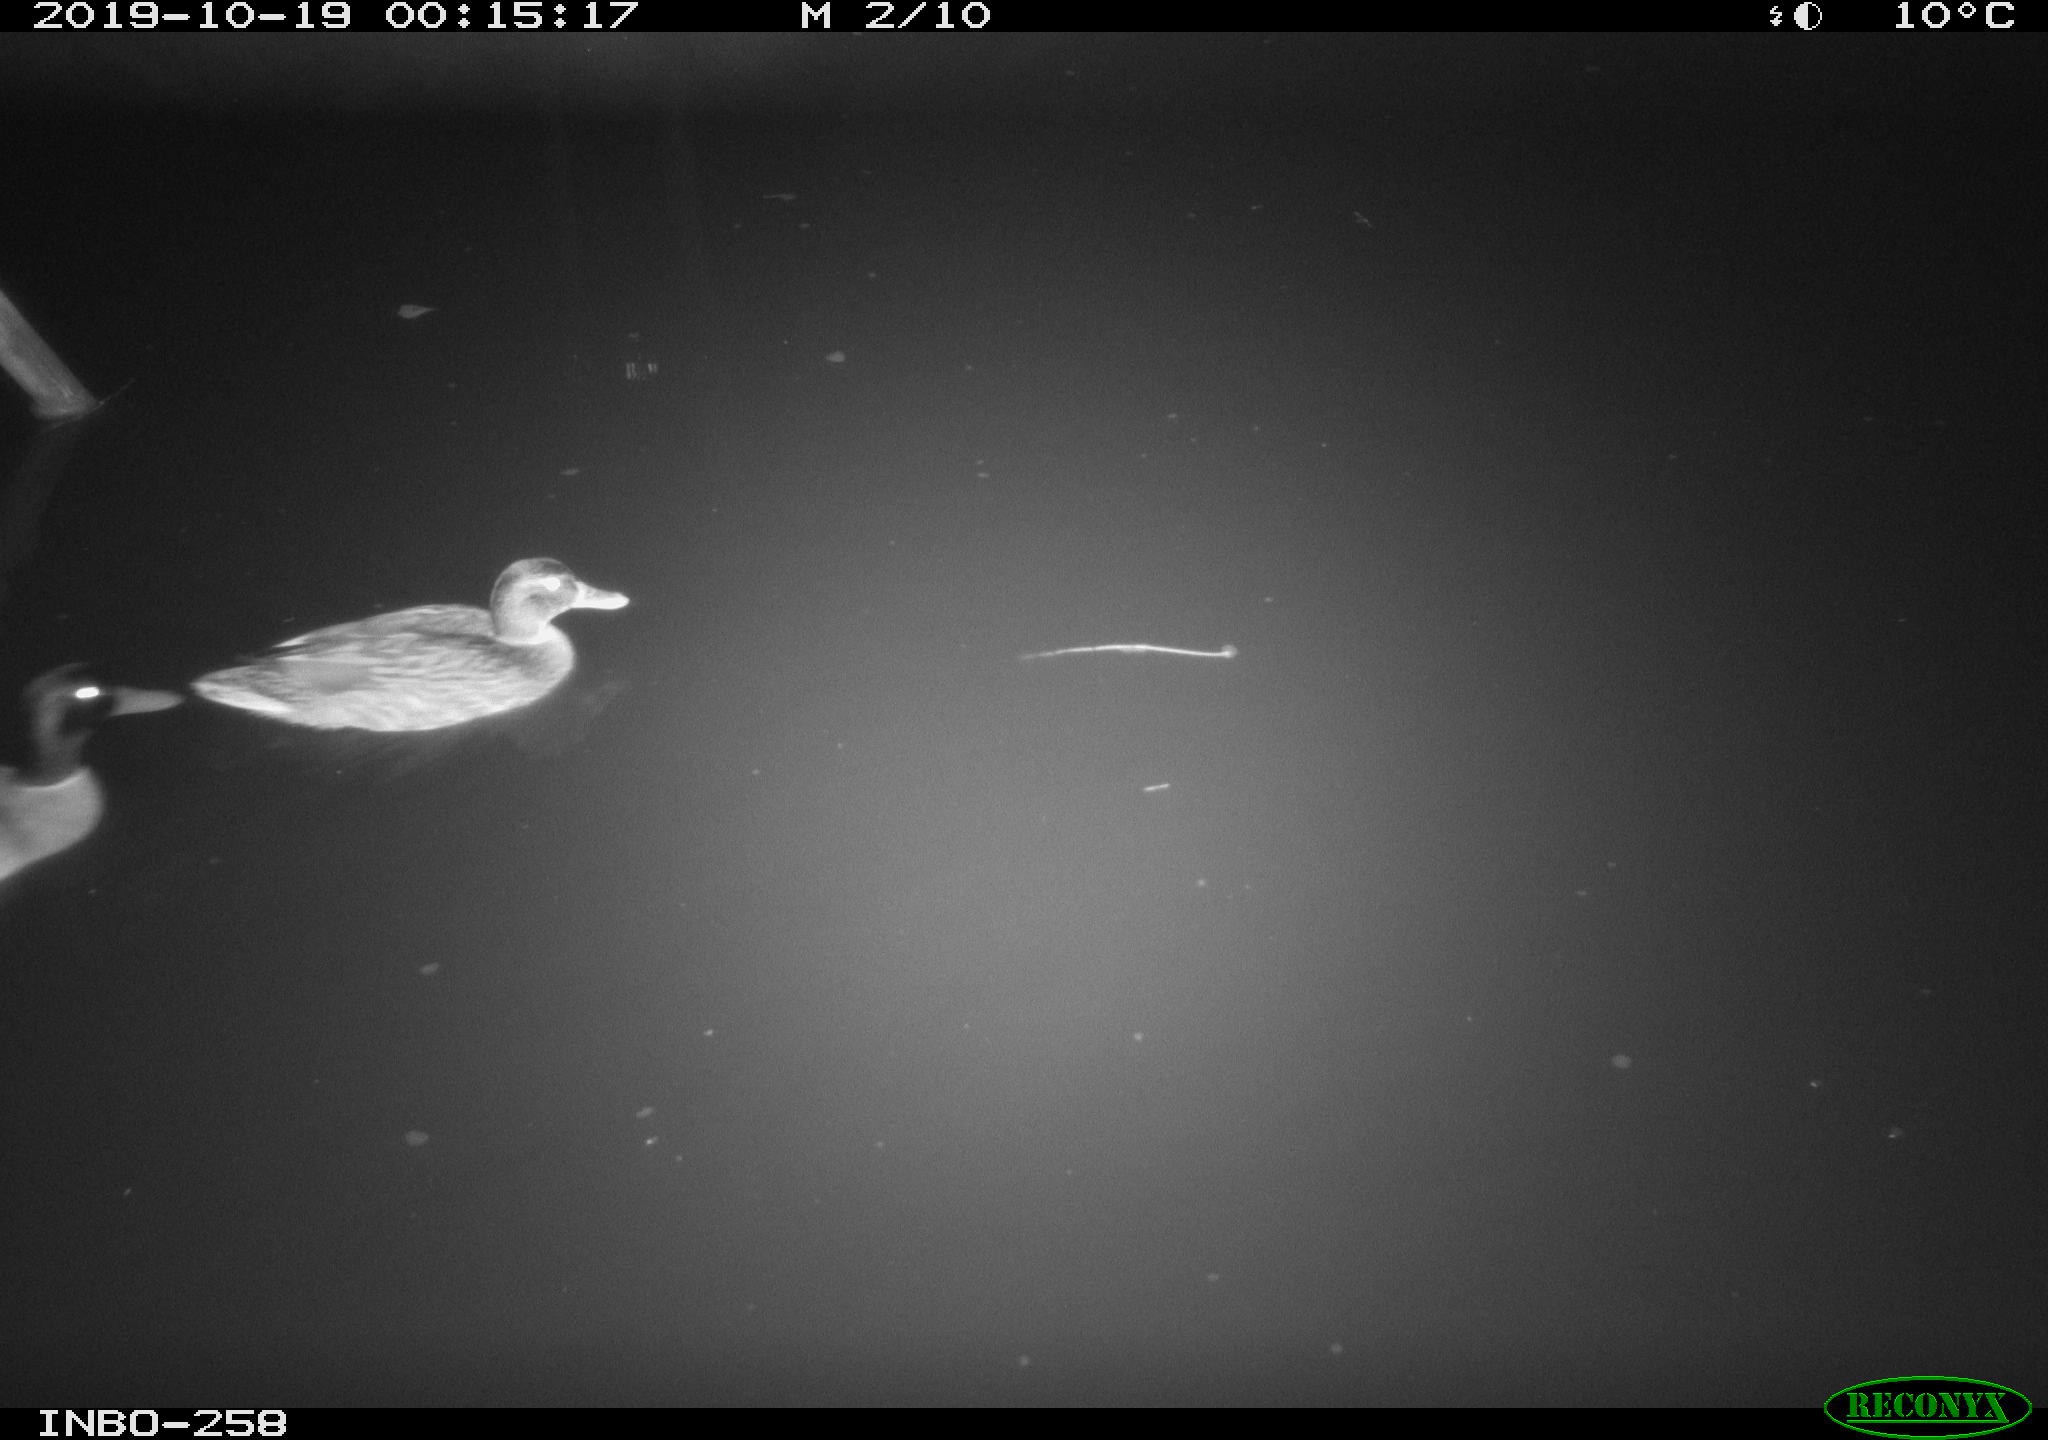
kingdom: Animalia
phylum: Chordata
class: Aves
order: Anseriformes
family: Anatidae
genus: Anas
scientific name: Anas platyrhynchos
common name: Mallard
